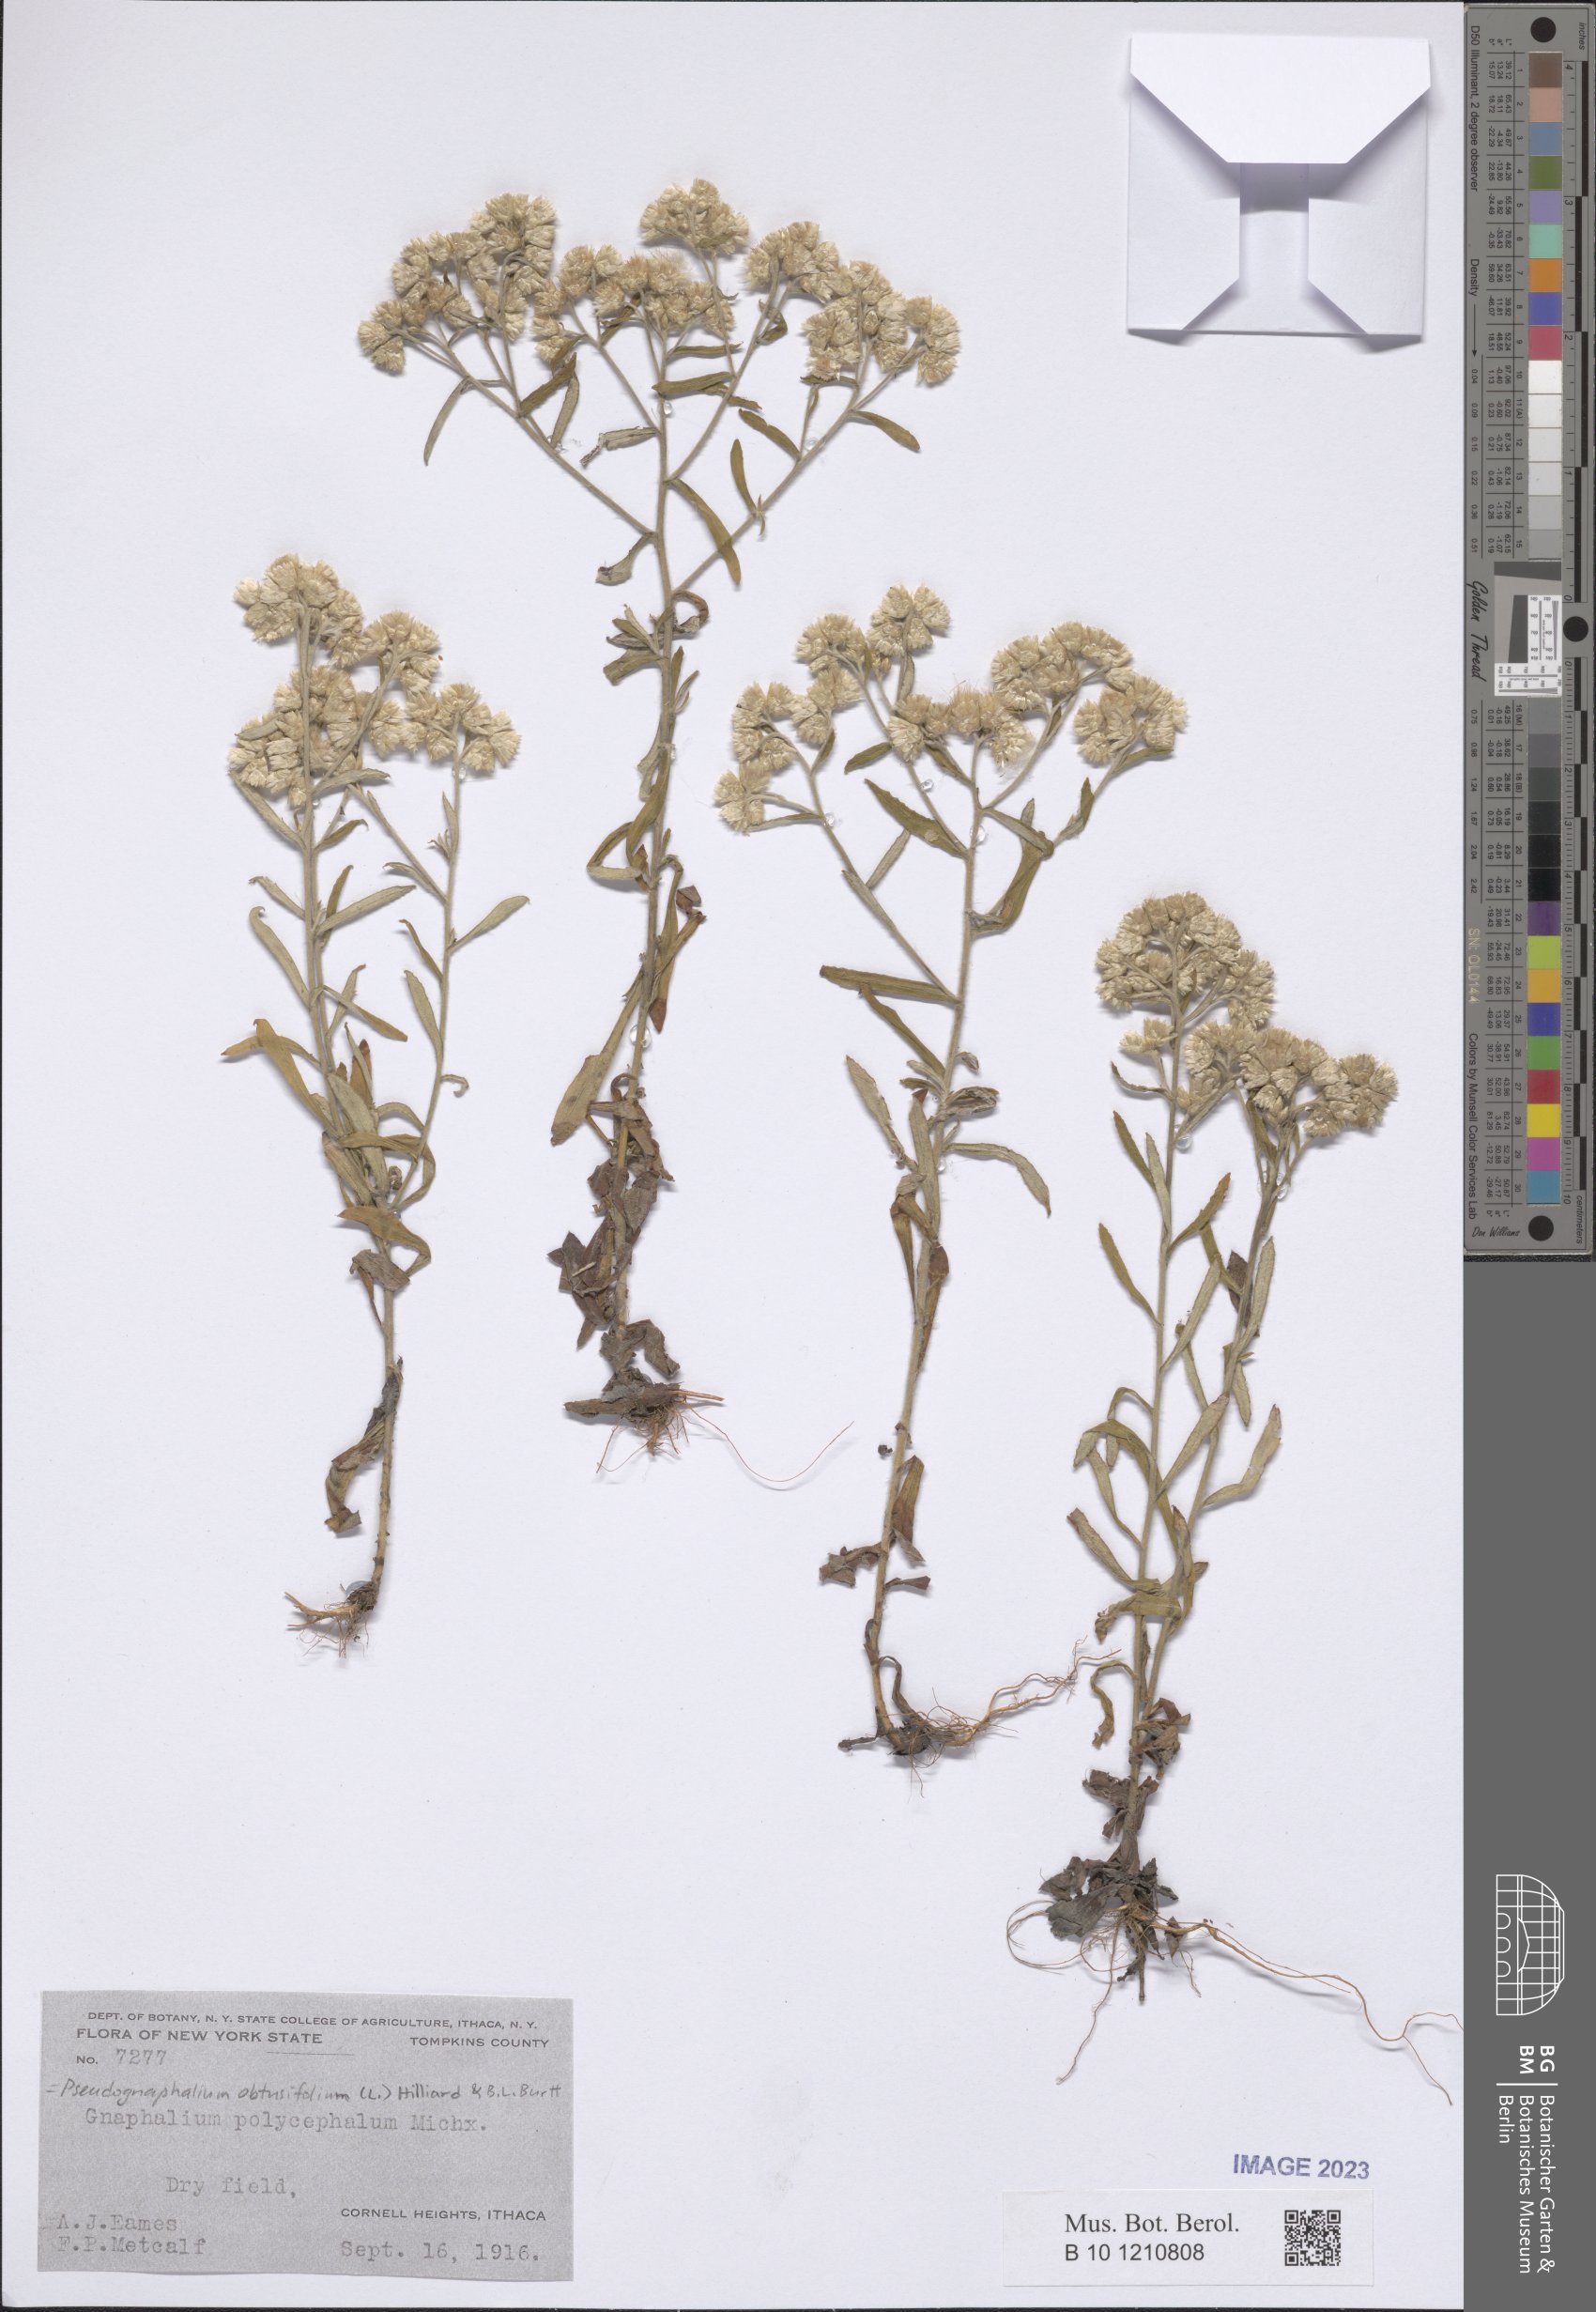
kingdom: Plantae
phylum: Tracheophyta
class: Magnoliopsida
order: Asterales
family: Asteraceae
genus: Pseudognaphalium
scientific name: Pseudognaphalium obtusifolium
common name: Eastern rabbit-tobacco
